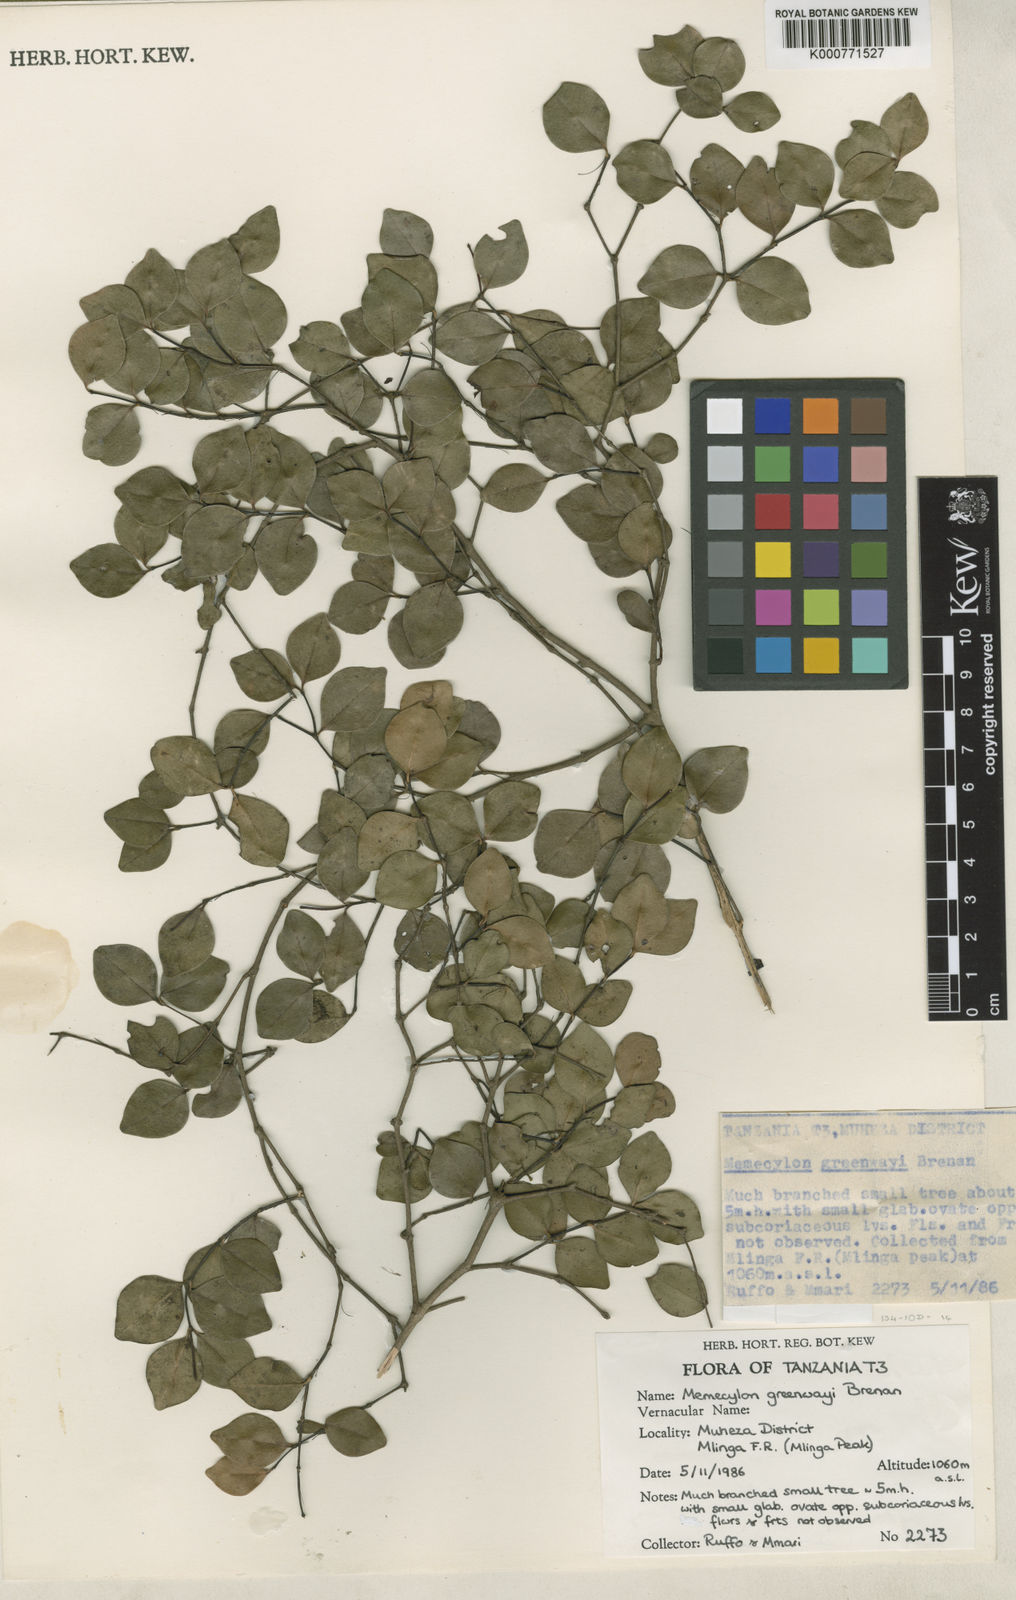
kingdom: Plantae
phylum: Tracheophyta
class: Magnoliopsida
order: Myrtales
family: Melastomataceae
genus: Memecylon
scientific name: Memecylon greenwayi
